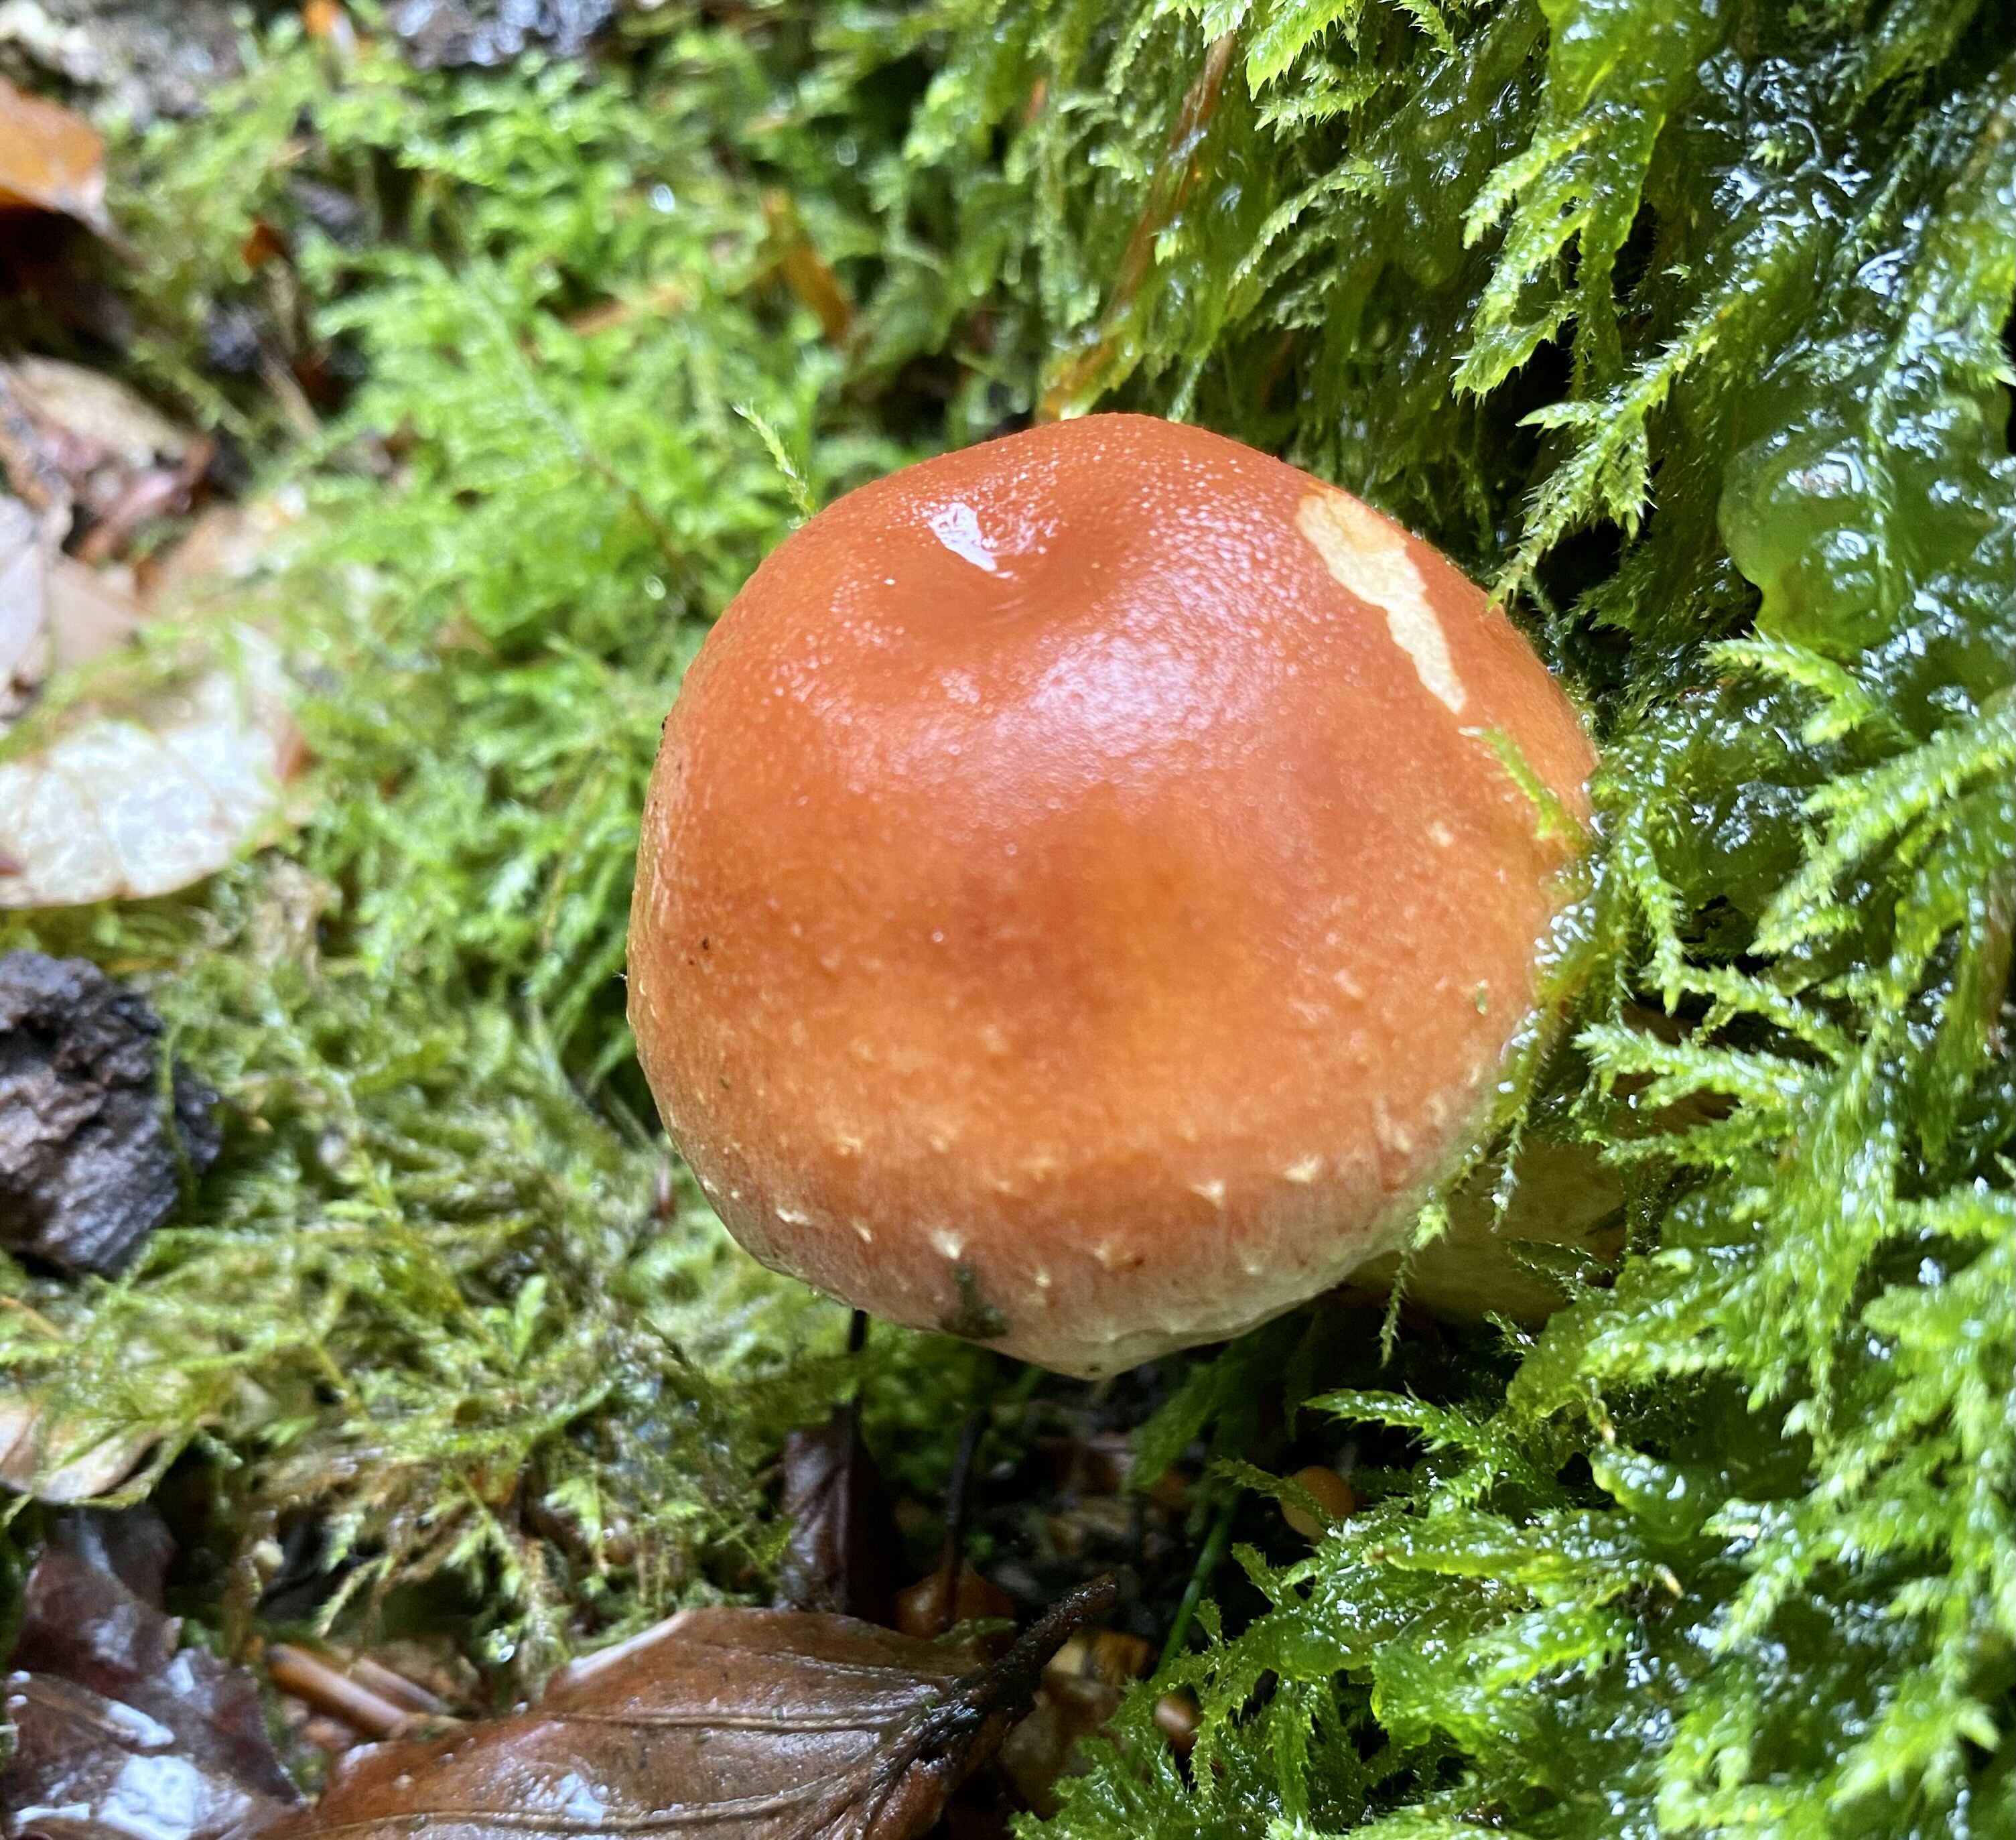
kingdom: Fungi
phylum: Basidiomycota
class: Agaricomycetes
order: Agaricales
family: Strophariaceae
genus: Hypholoma
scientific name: Hypholoma lateritium
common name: teglrød svovlhat
